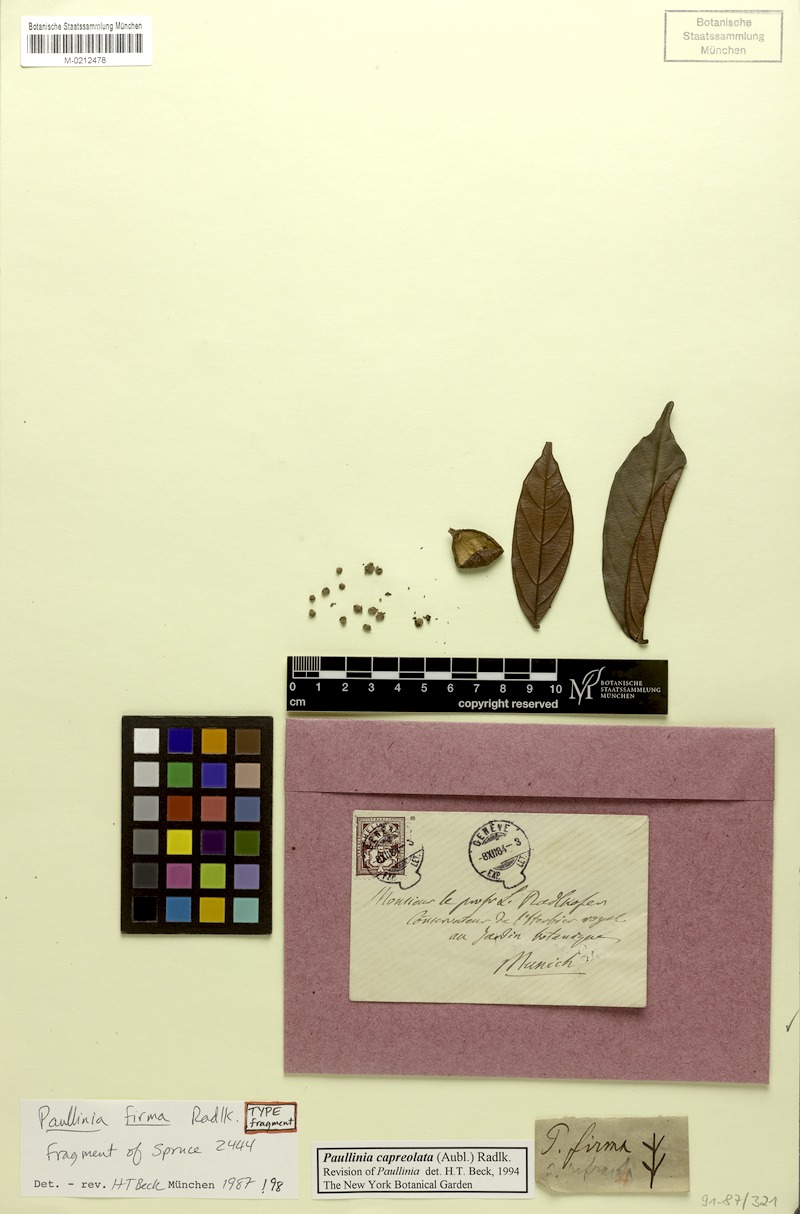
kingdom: Plantae
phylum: Tracheophyta
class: Magnoliopsida
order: Sapindales
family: Sapindaceae
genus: Paullinia
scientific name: Paullinia capreolata
